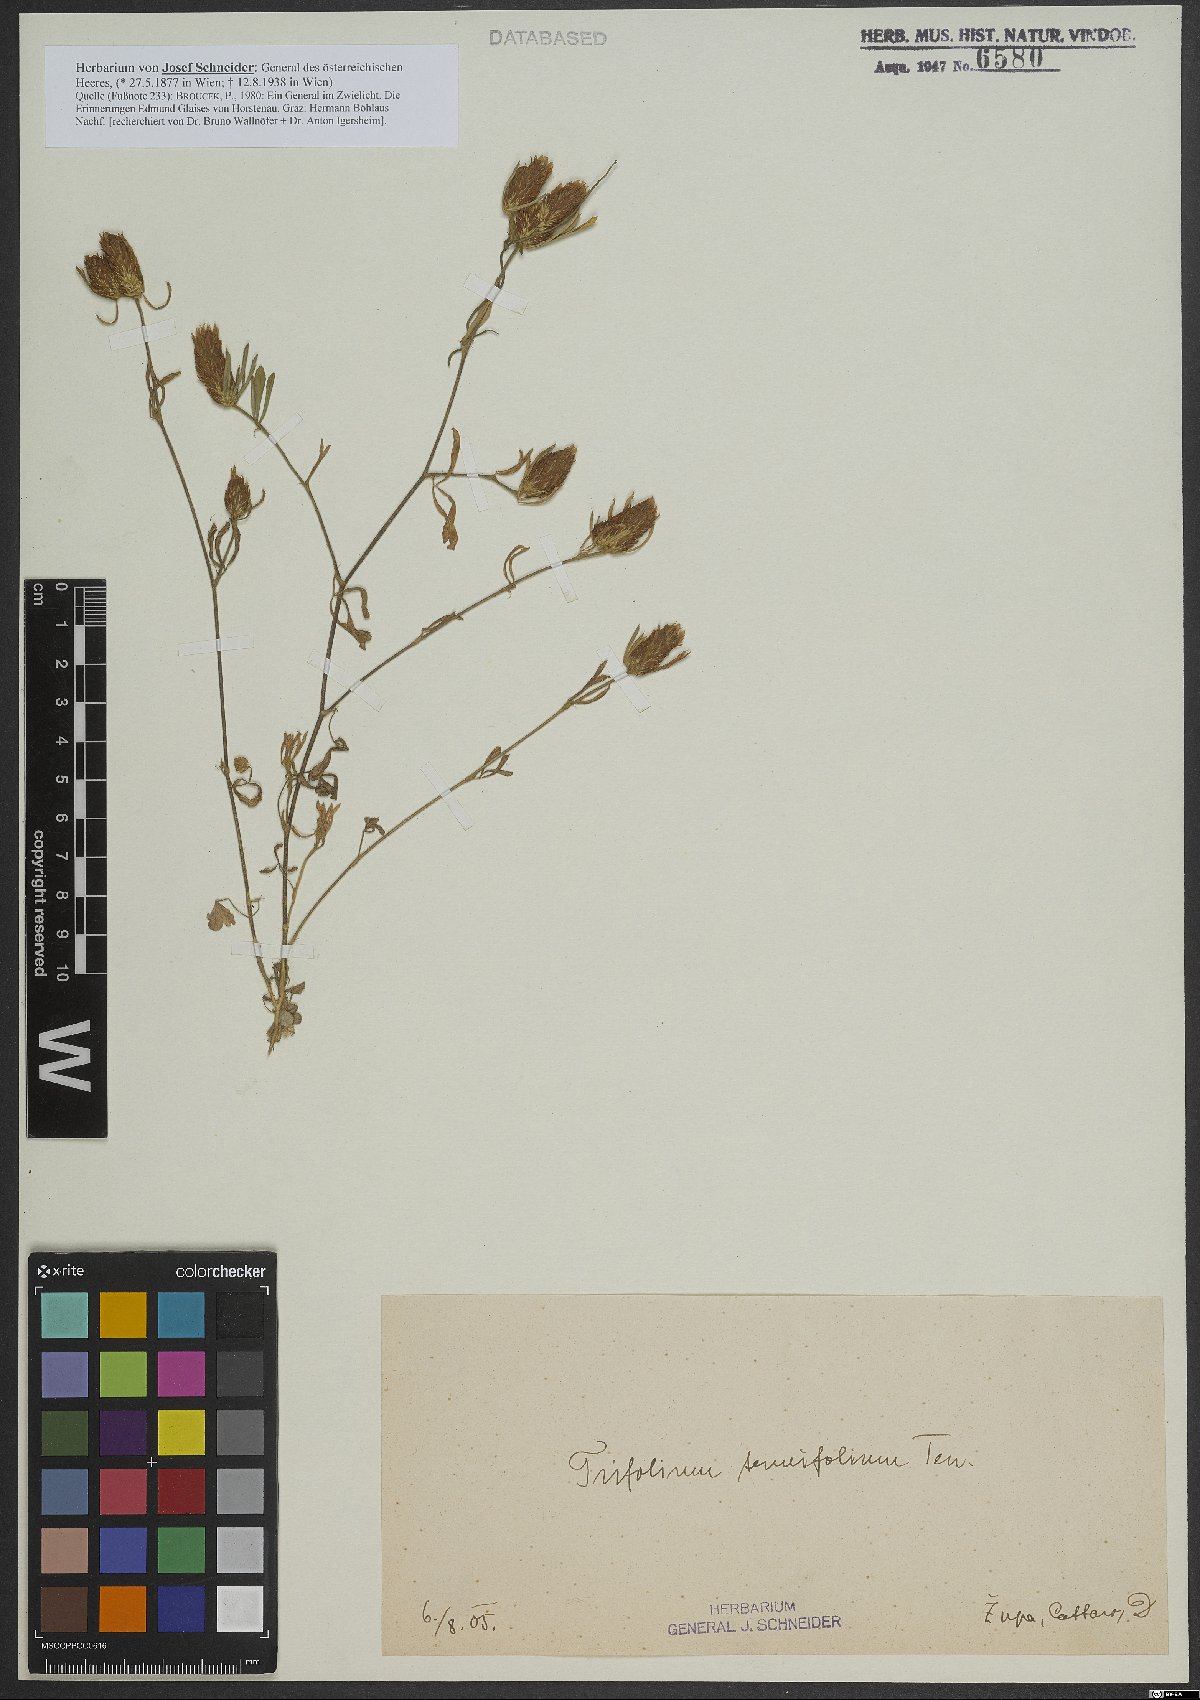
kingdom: Plantae
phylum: Tracheophyta
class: Magnoliopsida
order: Fabales
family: Fabaceae
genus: Trifolium
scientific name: Trifolium tenuifolium
